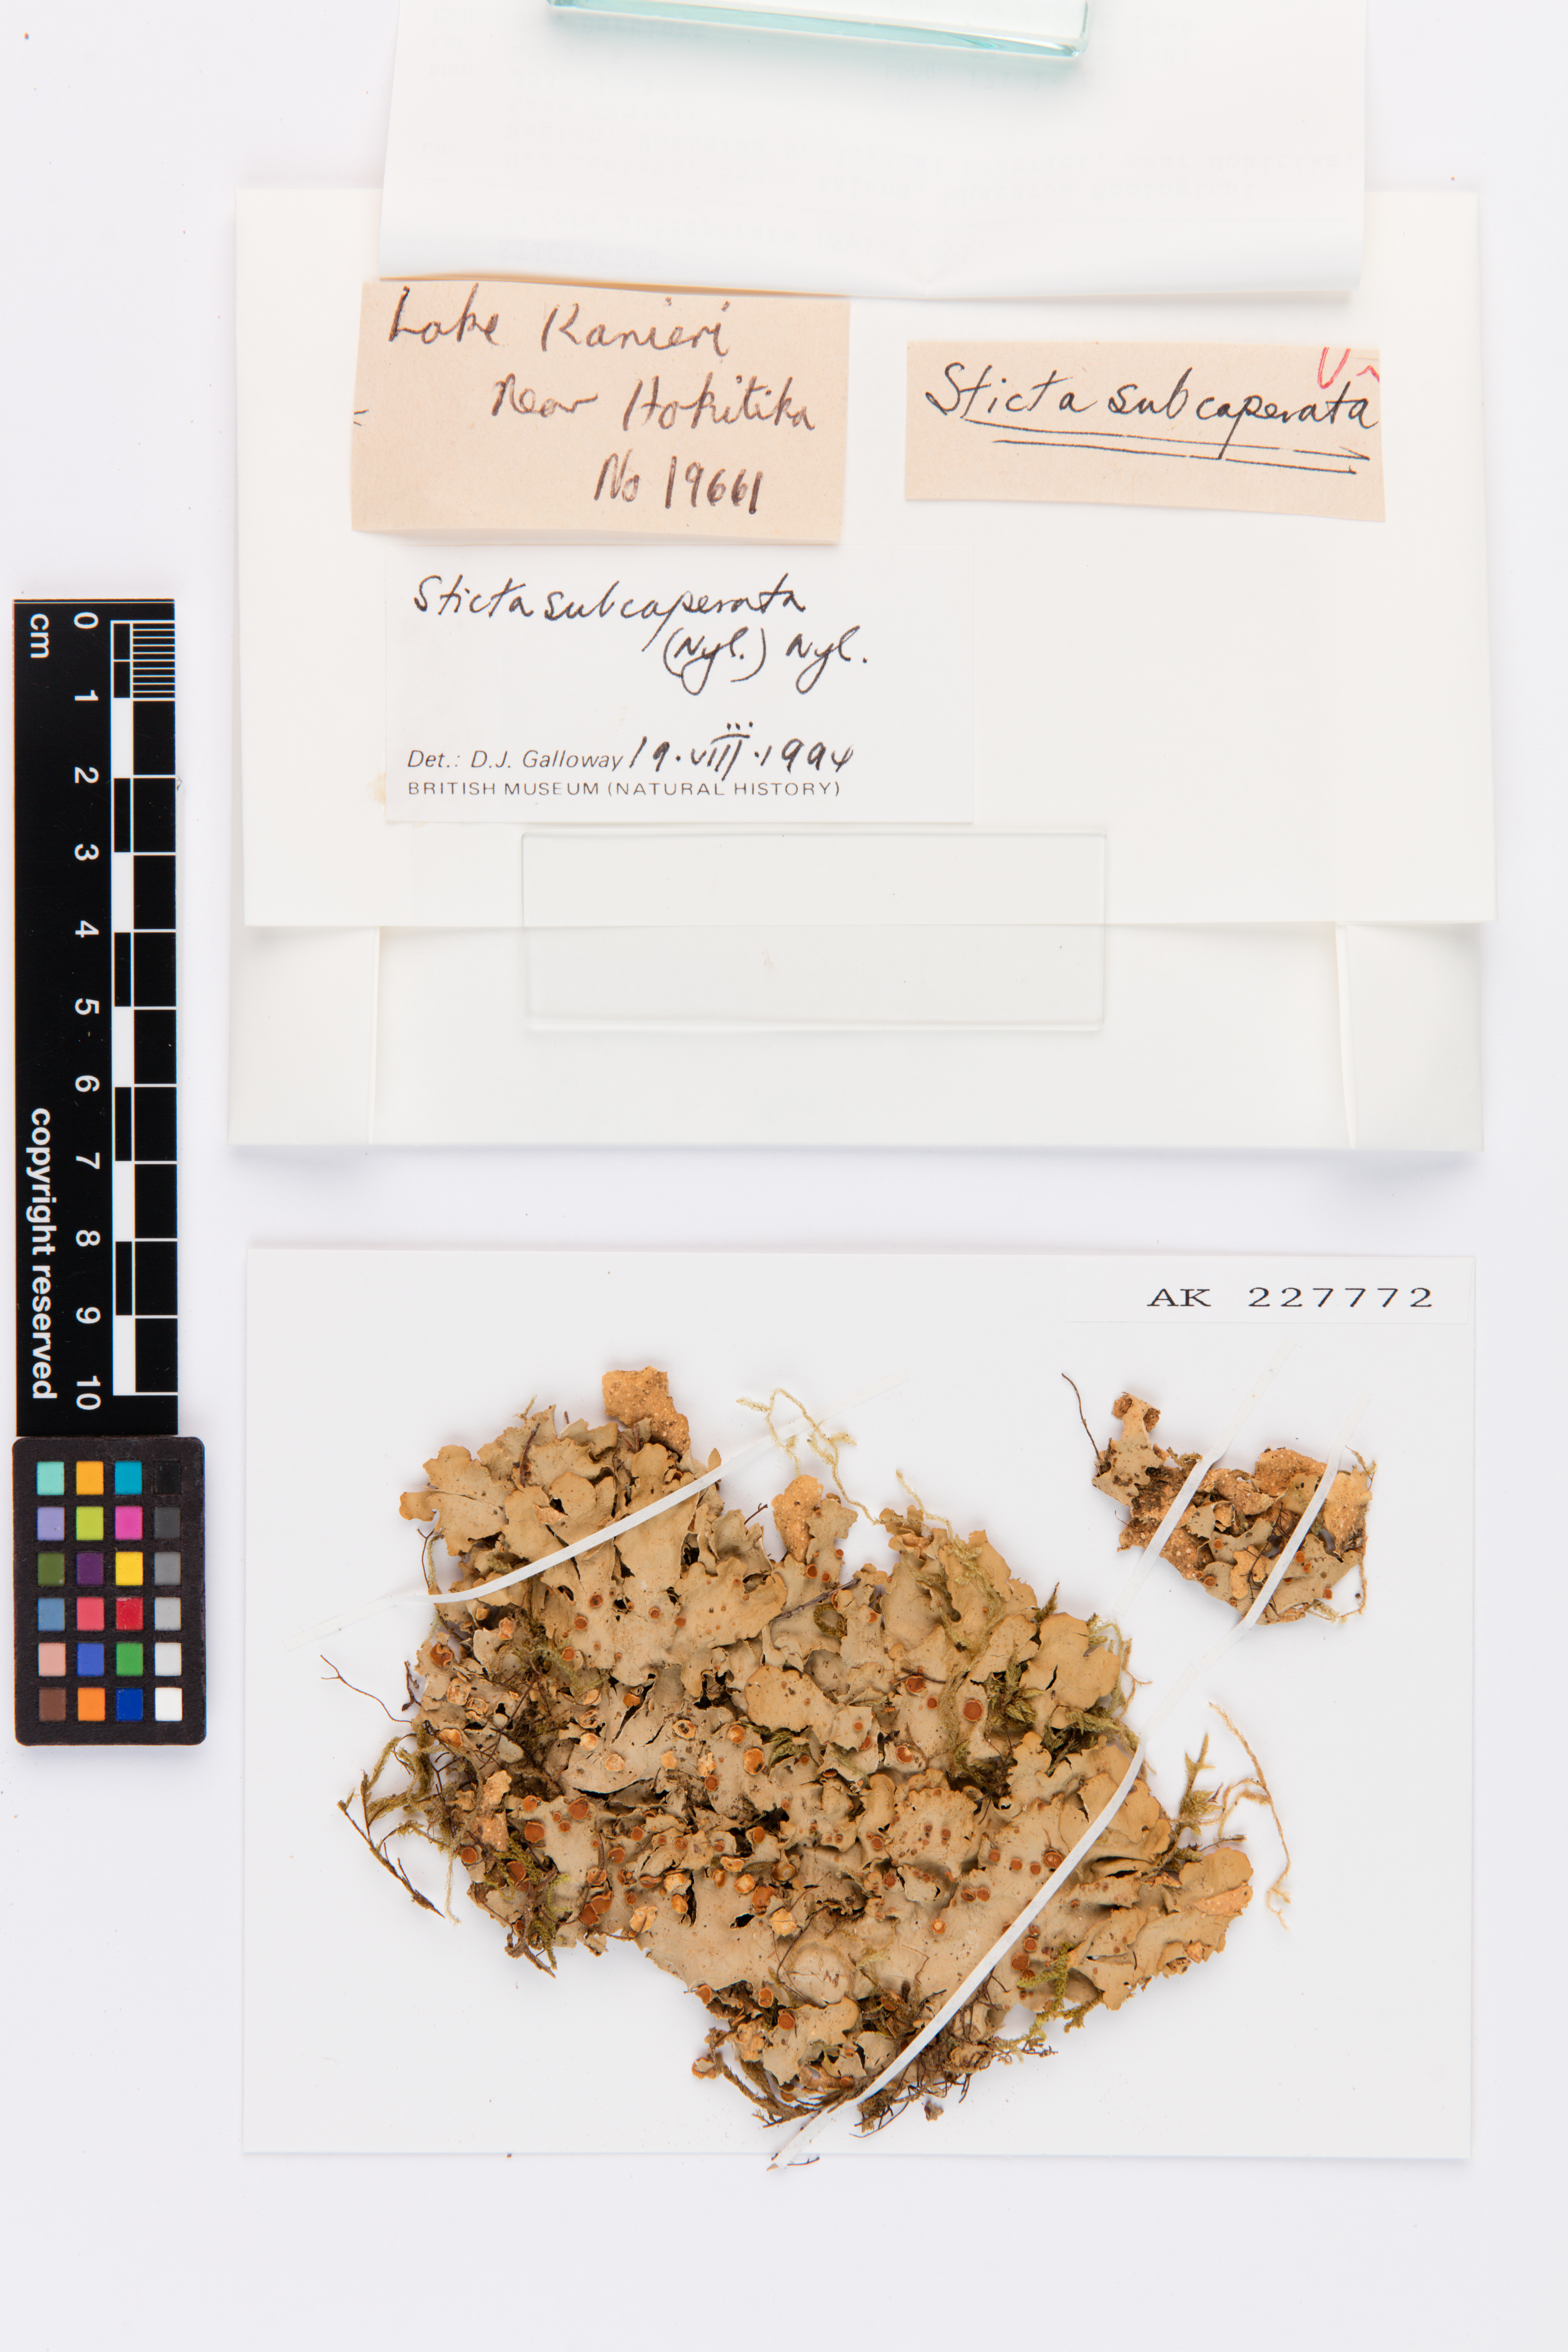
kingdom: Fungi
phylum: Ascomycota
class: Lecanoromycetes
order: Peltigerales
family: Lobariaceae
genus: Sticta
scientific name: Sticta subcaperata
